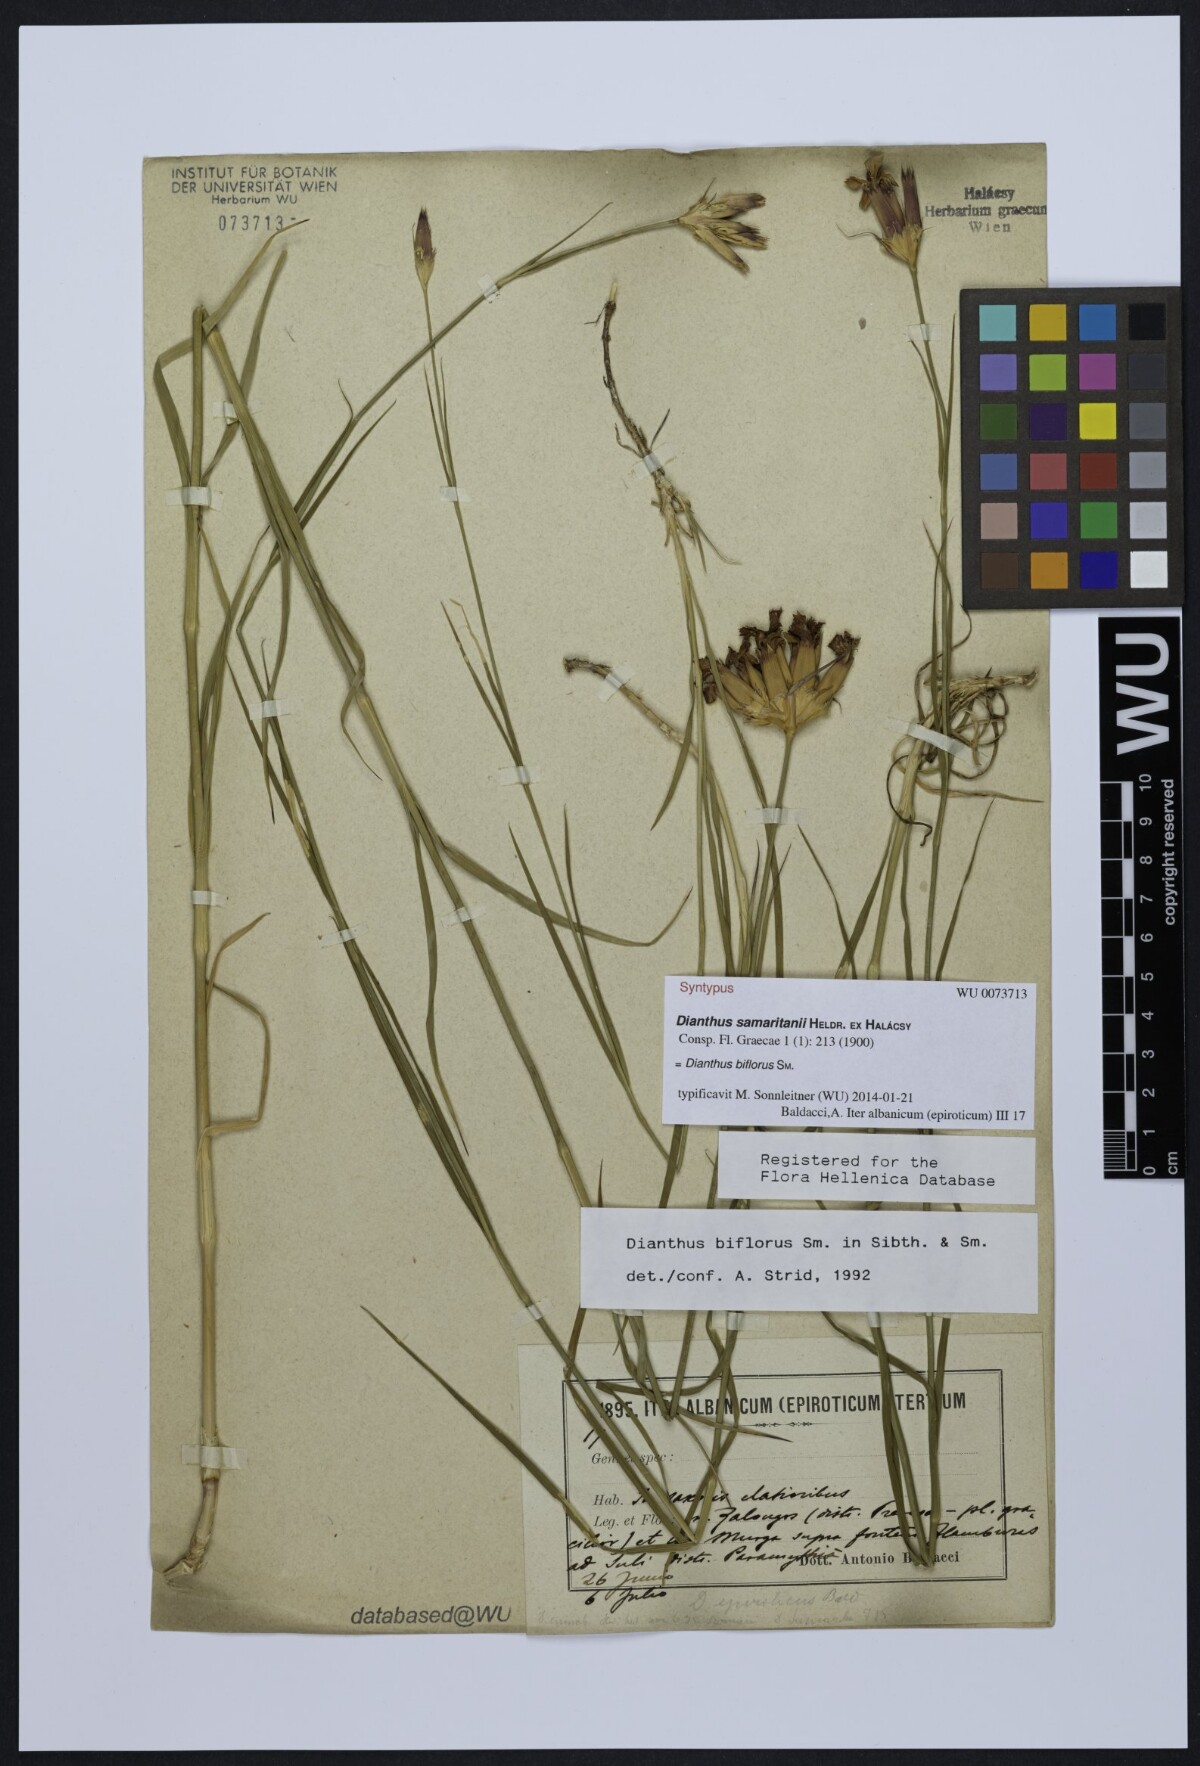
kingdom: Plantae
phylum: Tracheophyta
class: Magnoliopsida
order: Caryophyllales
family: Caryophyllaceae
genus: Dianthus
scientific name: Dianthus biflorus
